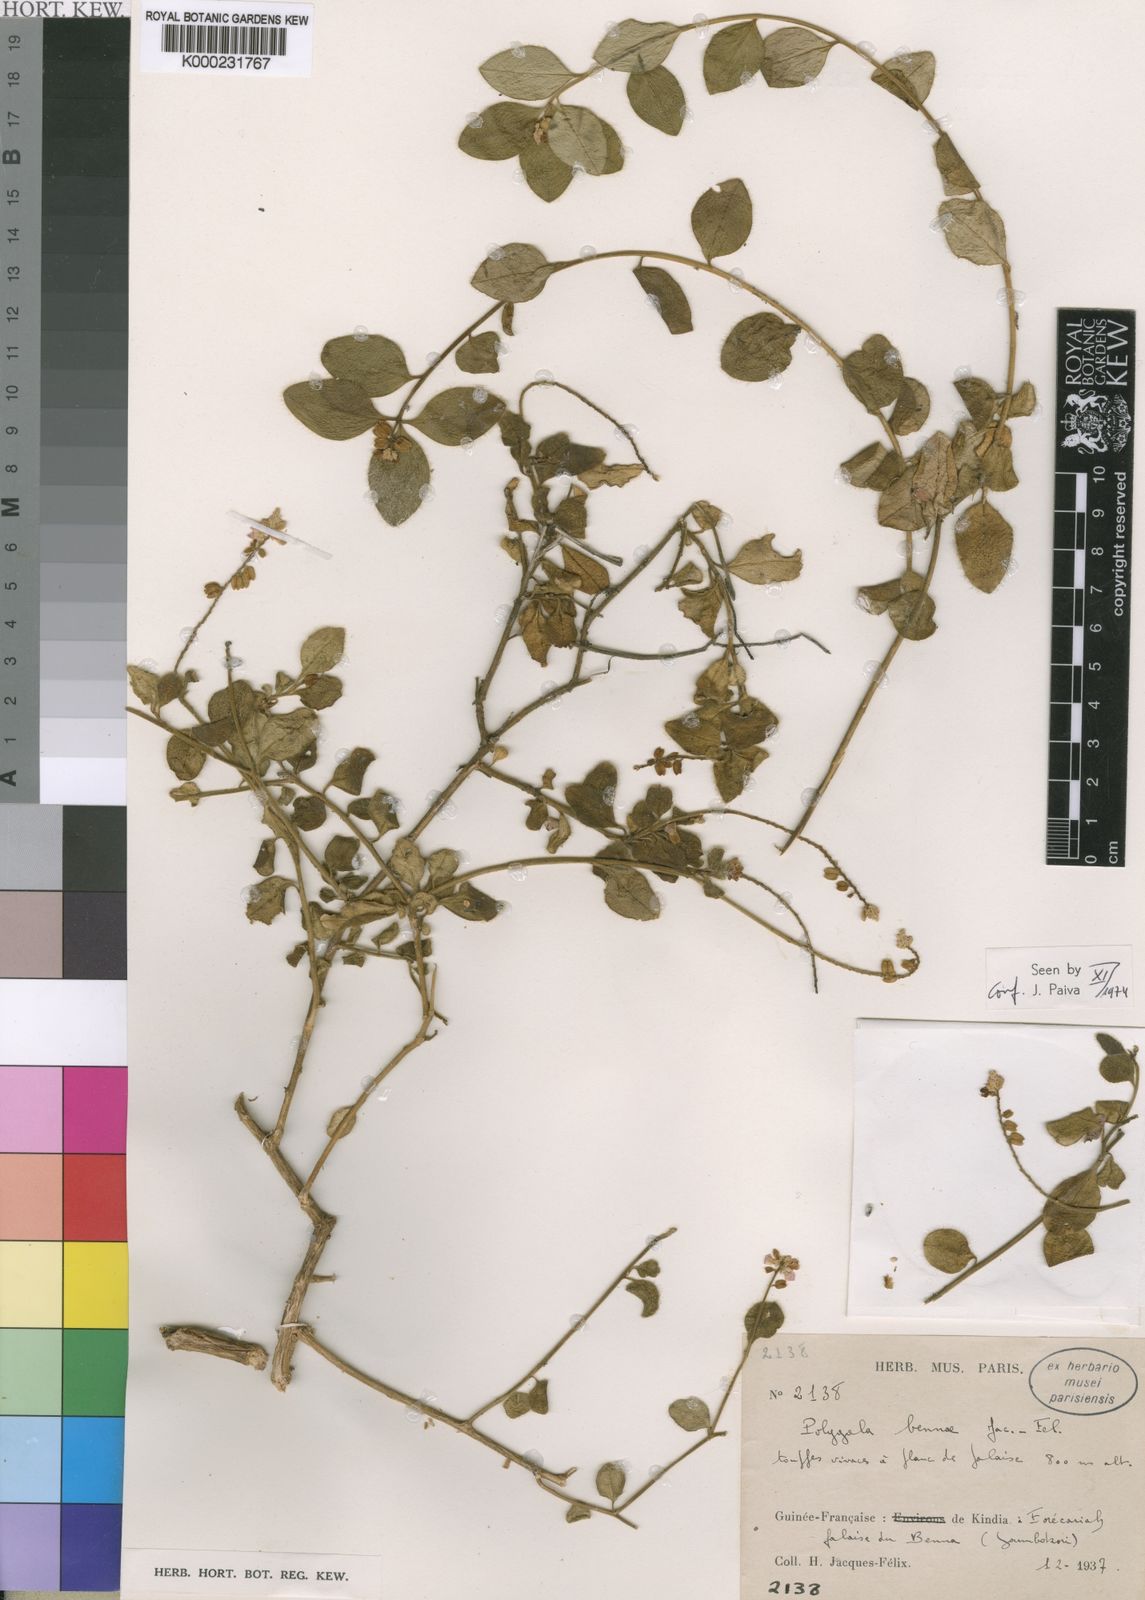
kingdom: Plantae
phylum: Tracheophyta
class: Magnoliopsida
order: Fabales
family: Polygalaceae
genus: Polygala
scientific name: Polygala bennae
